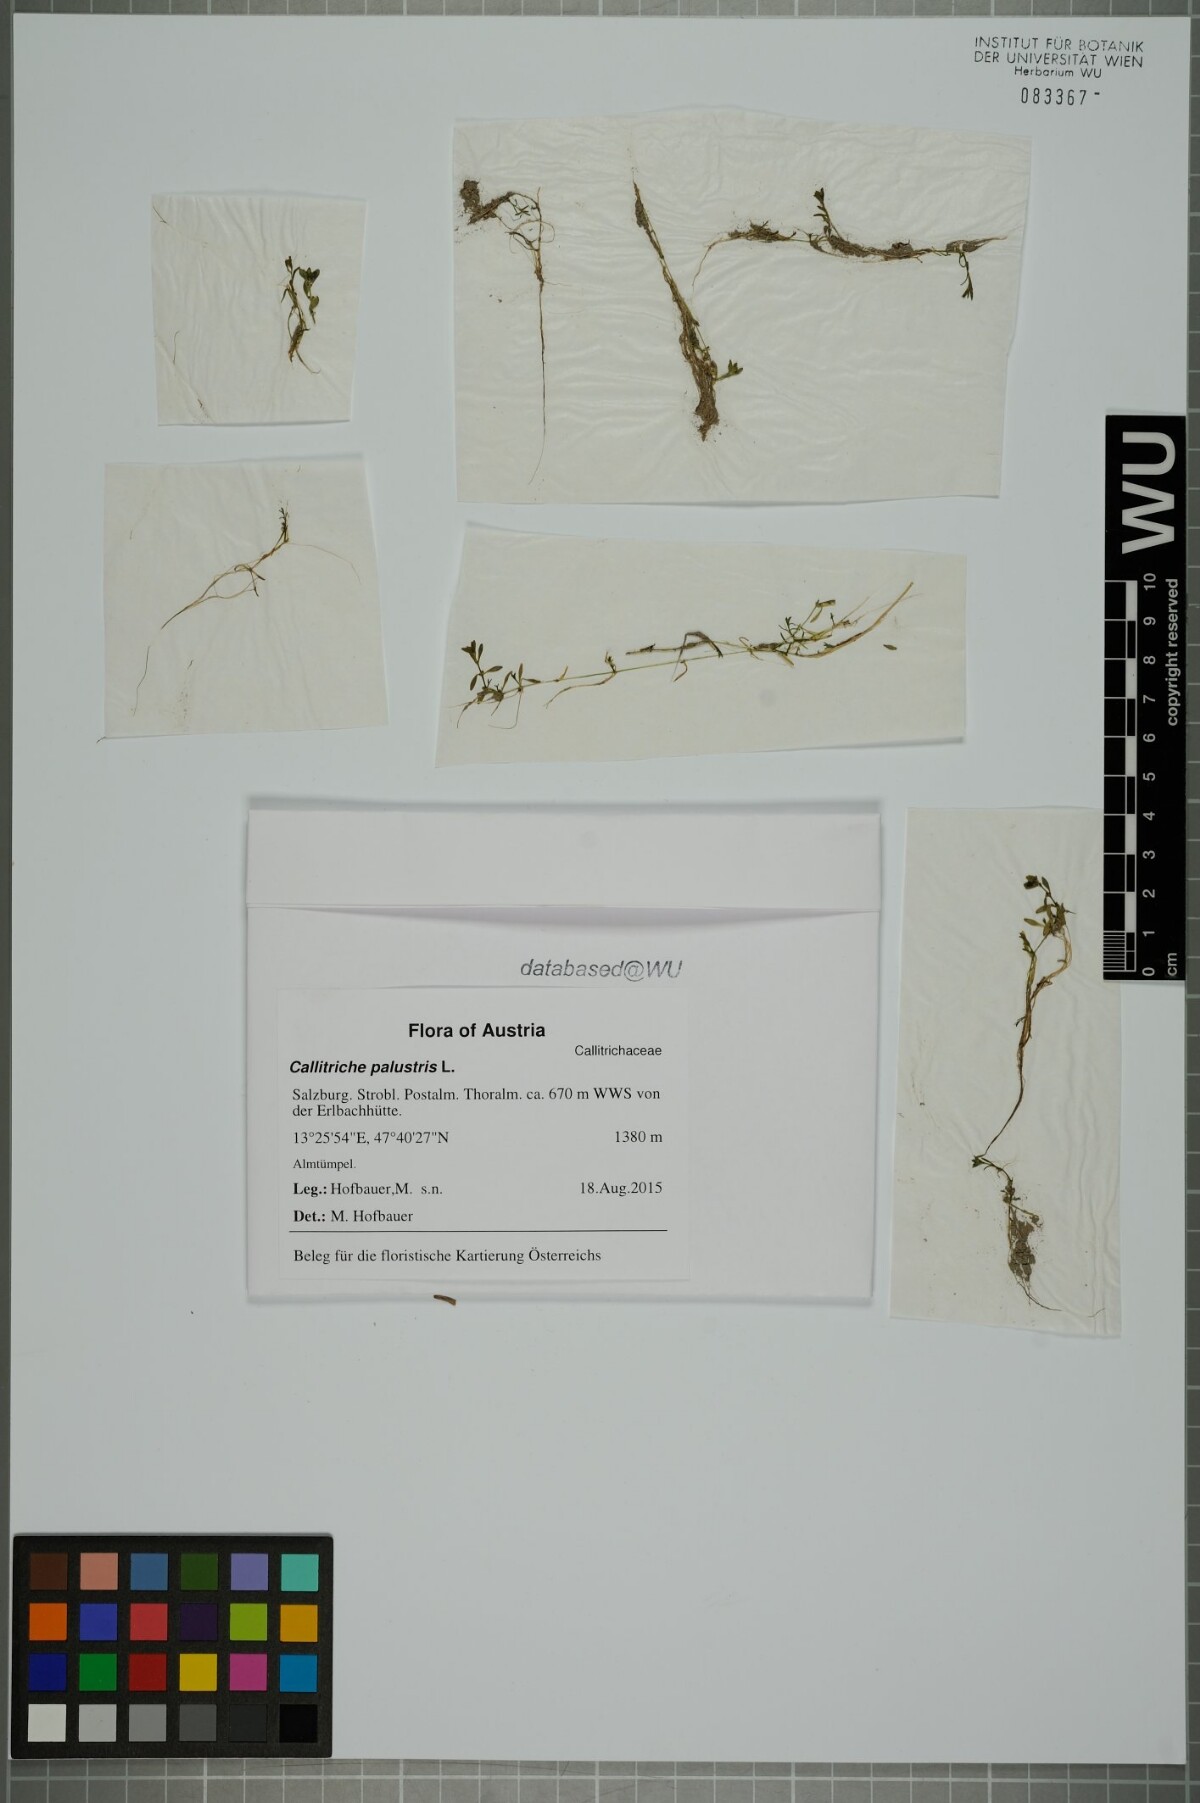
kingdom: Plantae
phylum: Tracheophyta
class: Magnoliopsida
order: Lamiales
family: Plantaginaceae
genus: Callitriche
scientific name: Callitriche palustris
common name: Spring water-starwort
